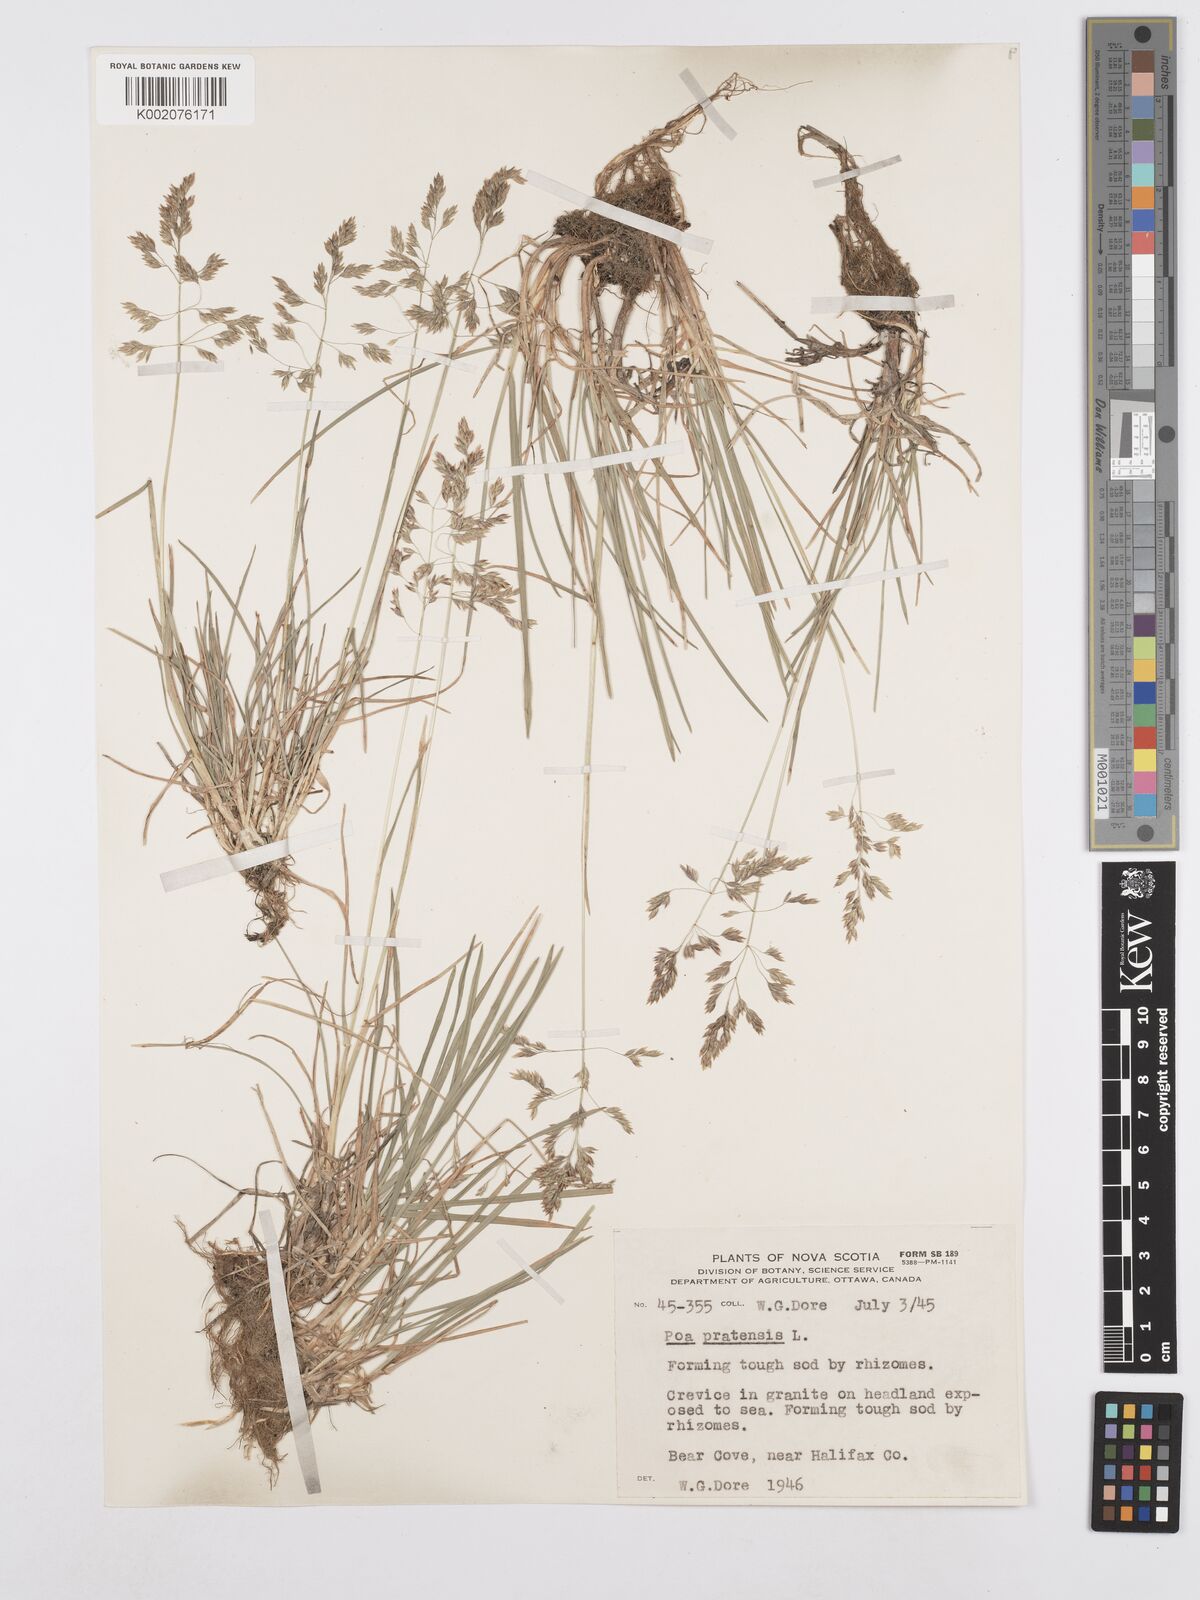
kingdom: Plantae
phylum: Tracheophyta
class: Liliopsida
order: Poales
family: Poaceae
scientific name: Poaceae
